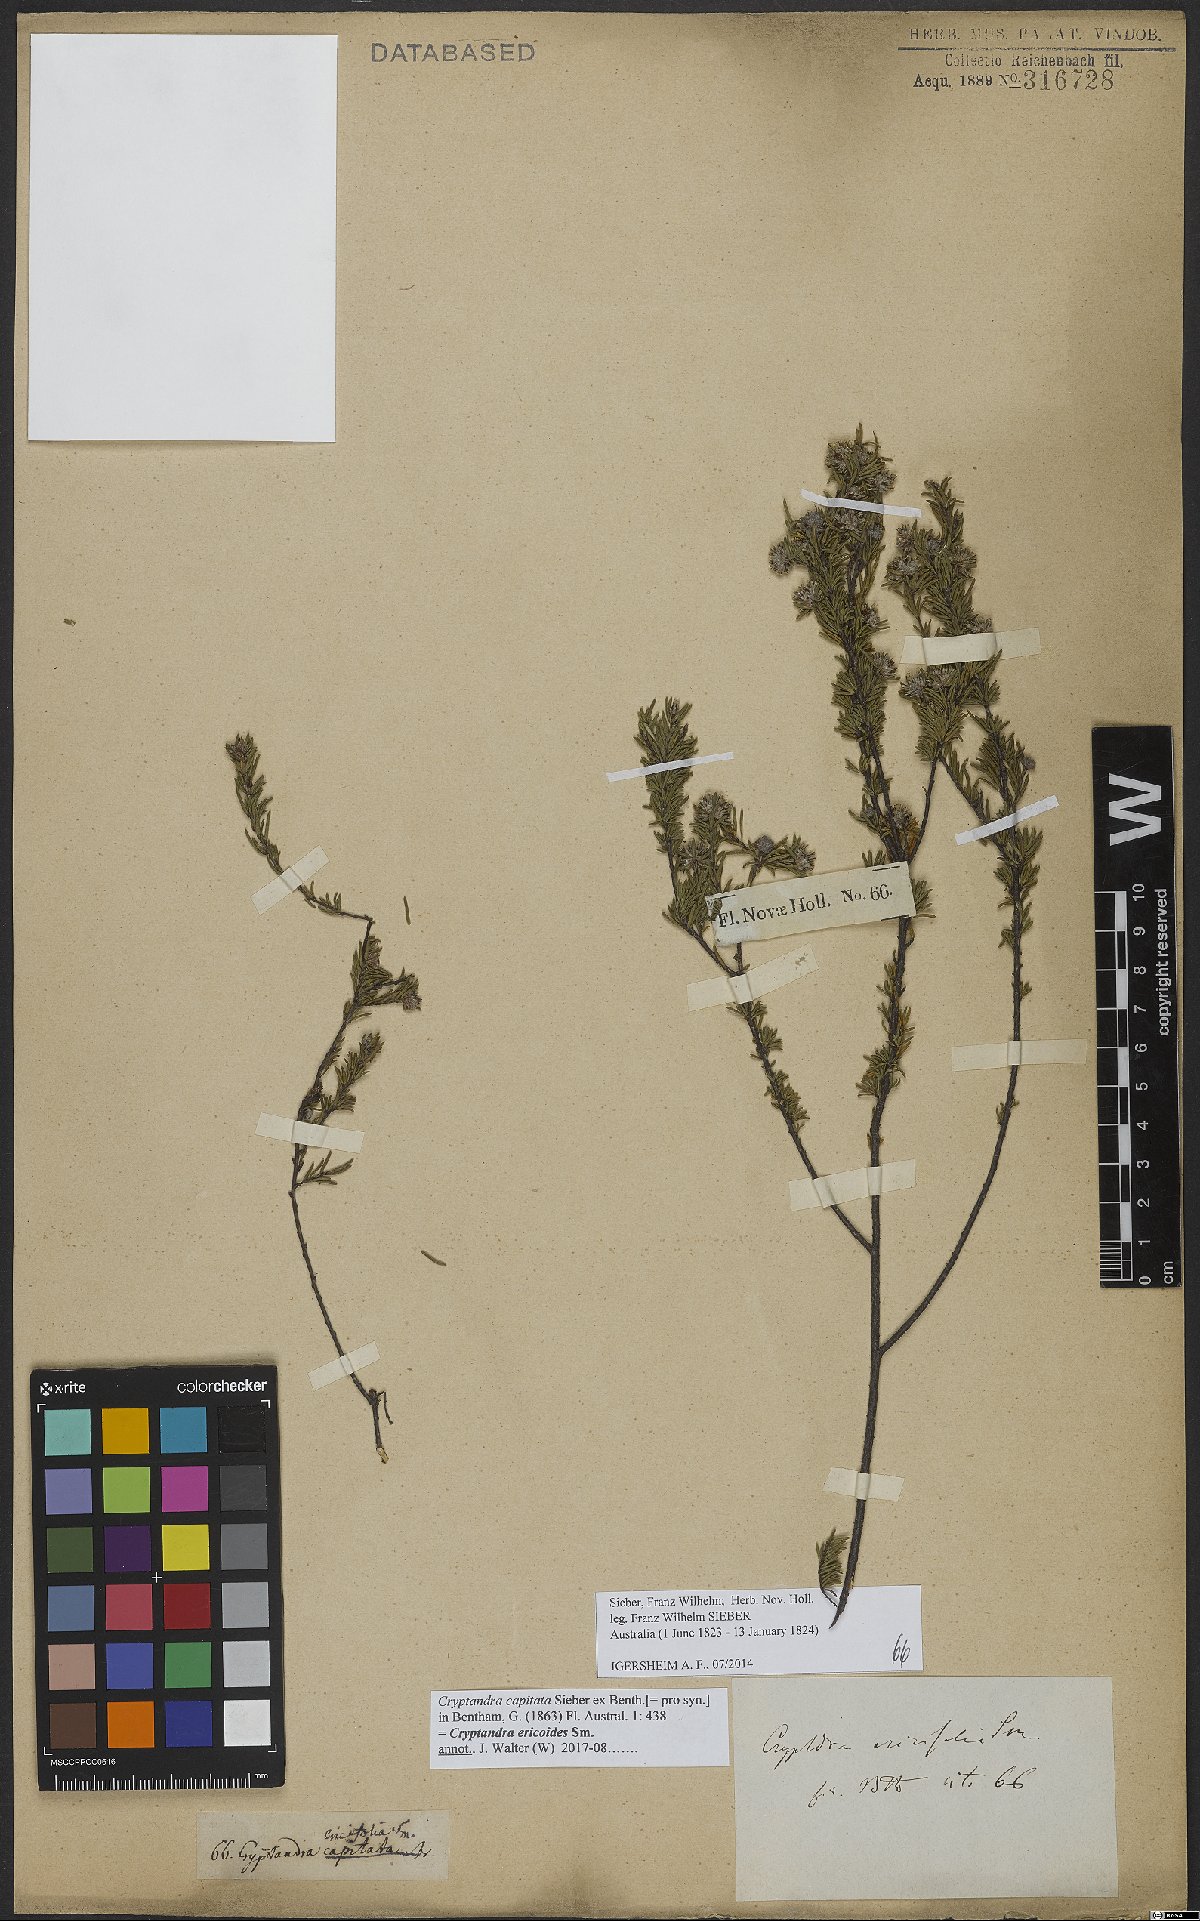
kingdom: Plantae
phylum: Tracheophyta
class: Magnoliopsida
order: Rosales
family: Rhamnaceae
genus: Cryptandra
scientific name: Cryptandra australis
